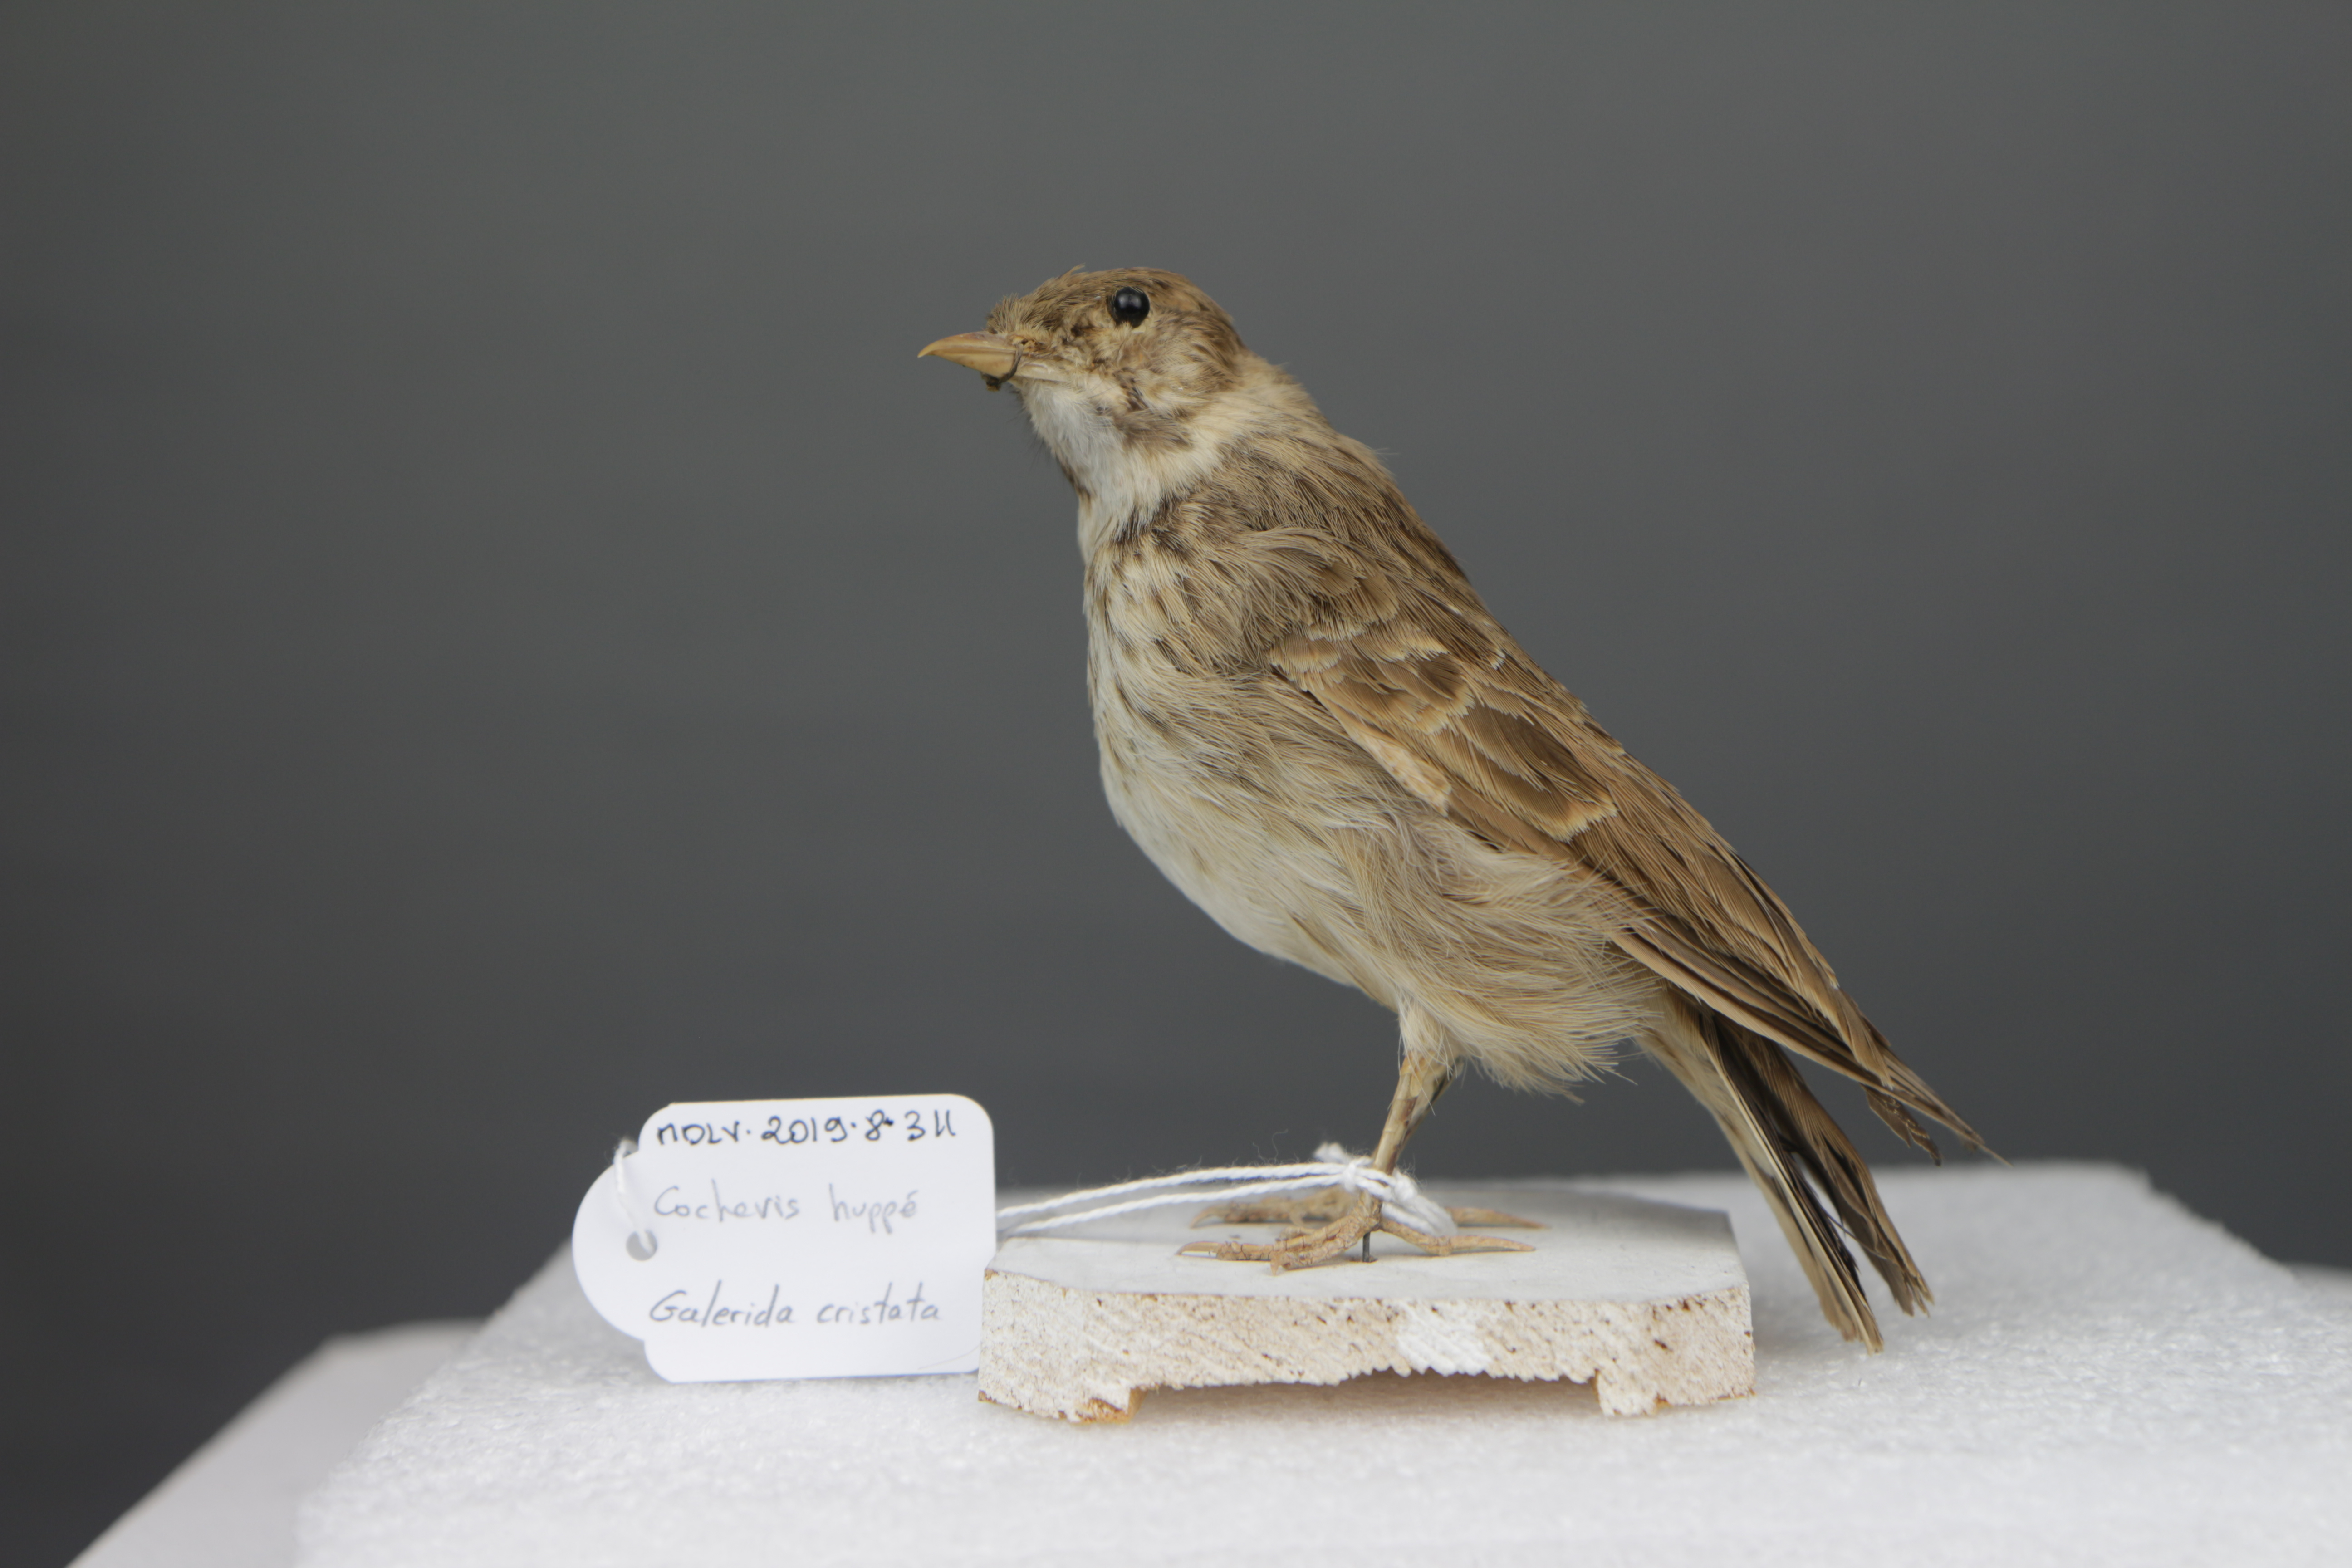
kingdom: Animalia
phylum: Chordata
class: Aves
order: Passeriformes
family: Alaudidae
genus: Galerida
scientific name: Galerida cristata
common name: Crested lark
